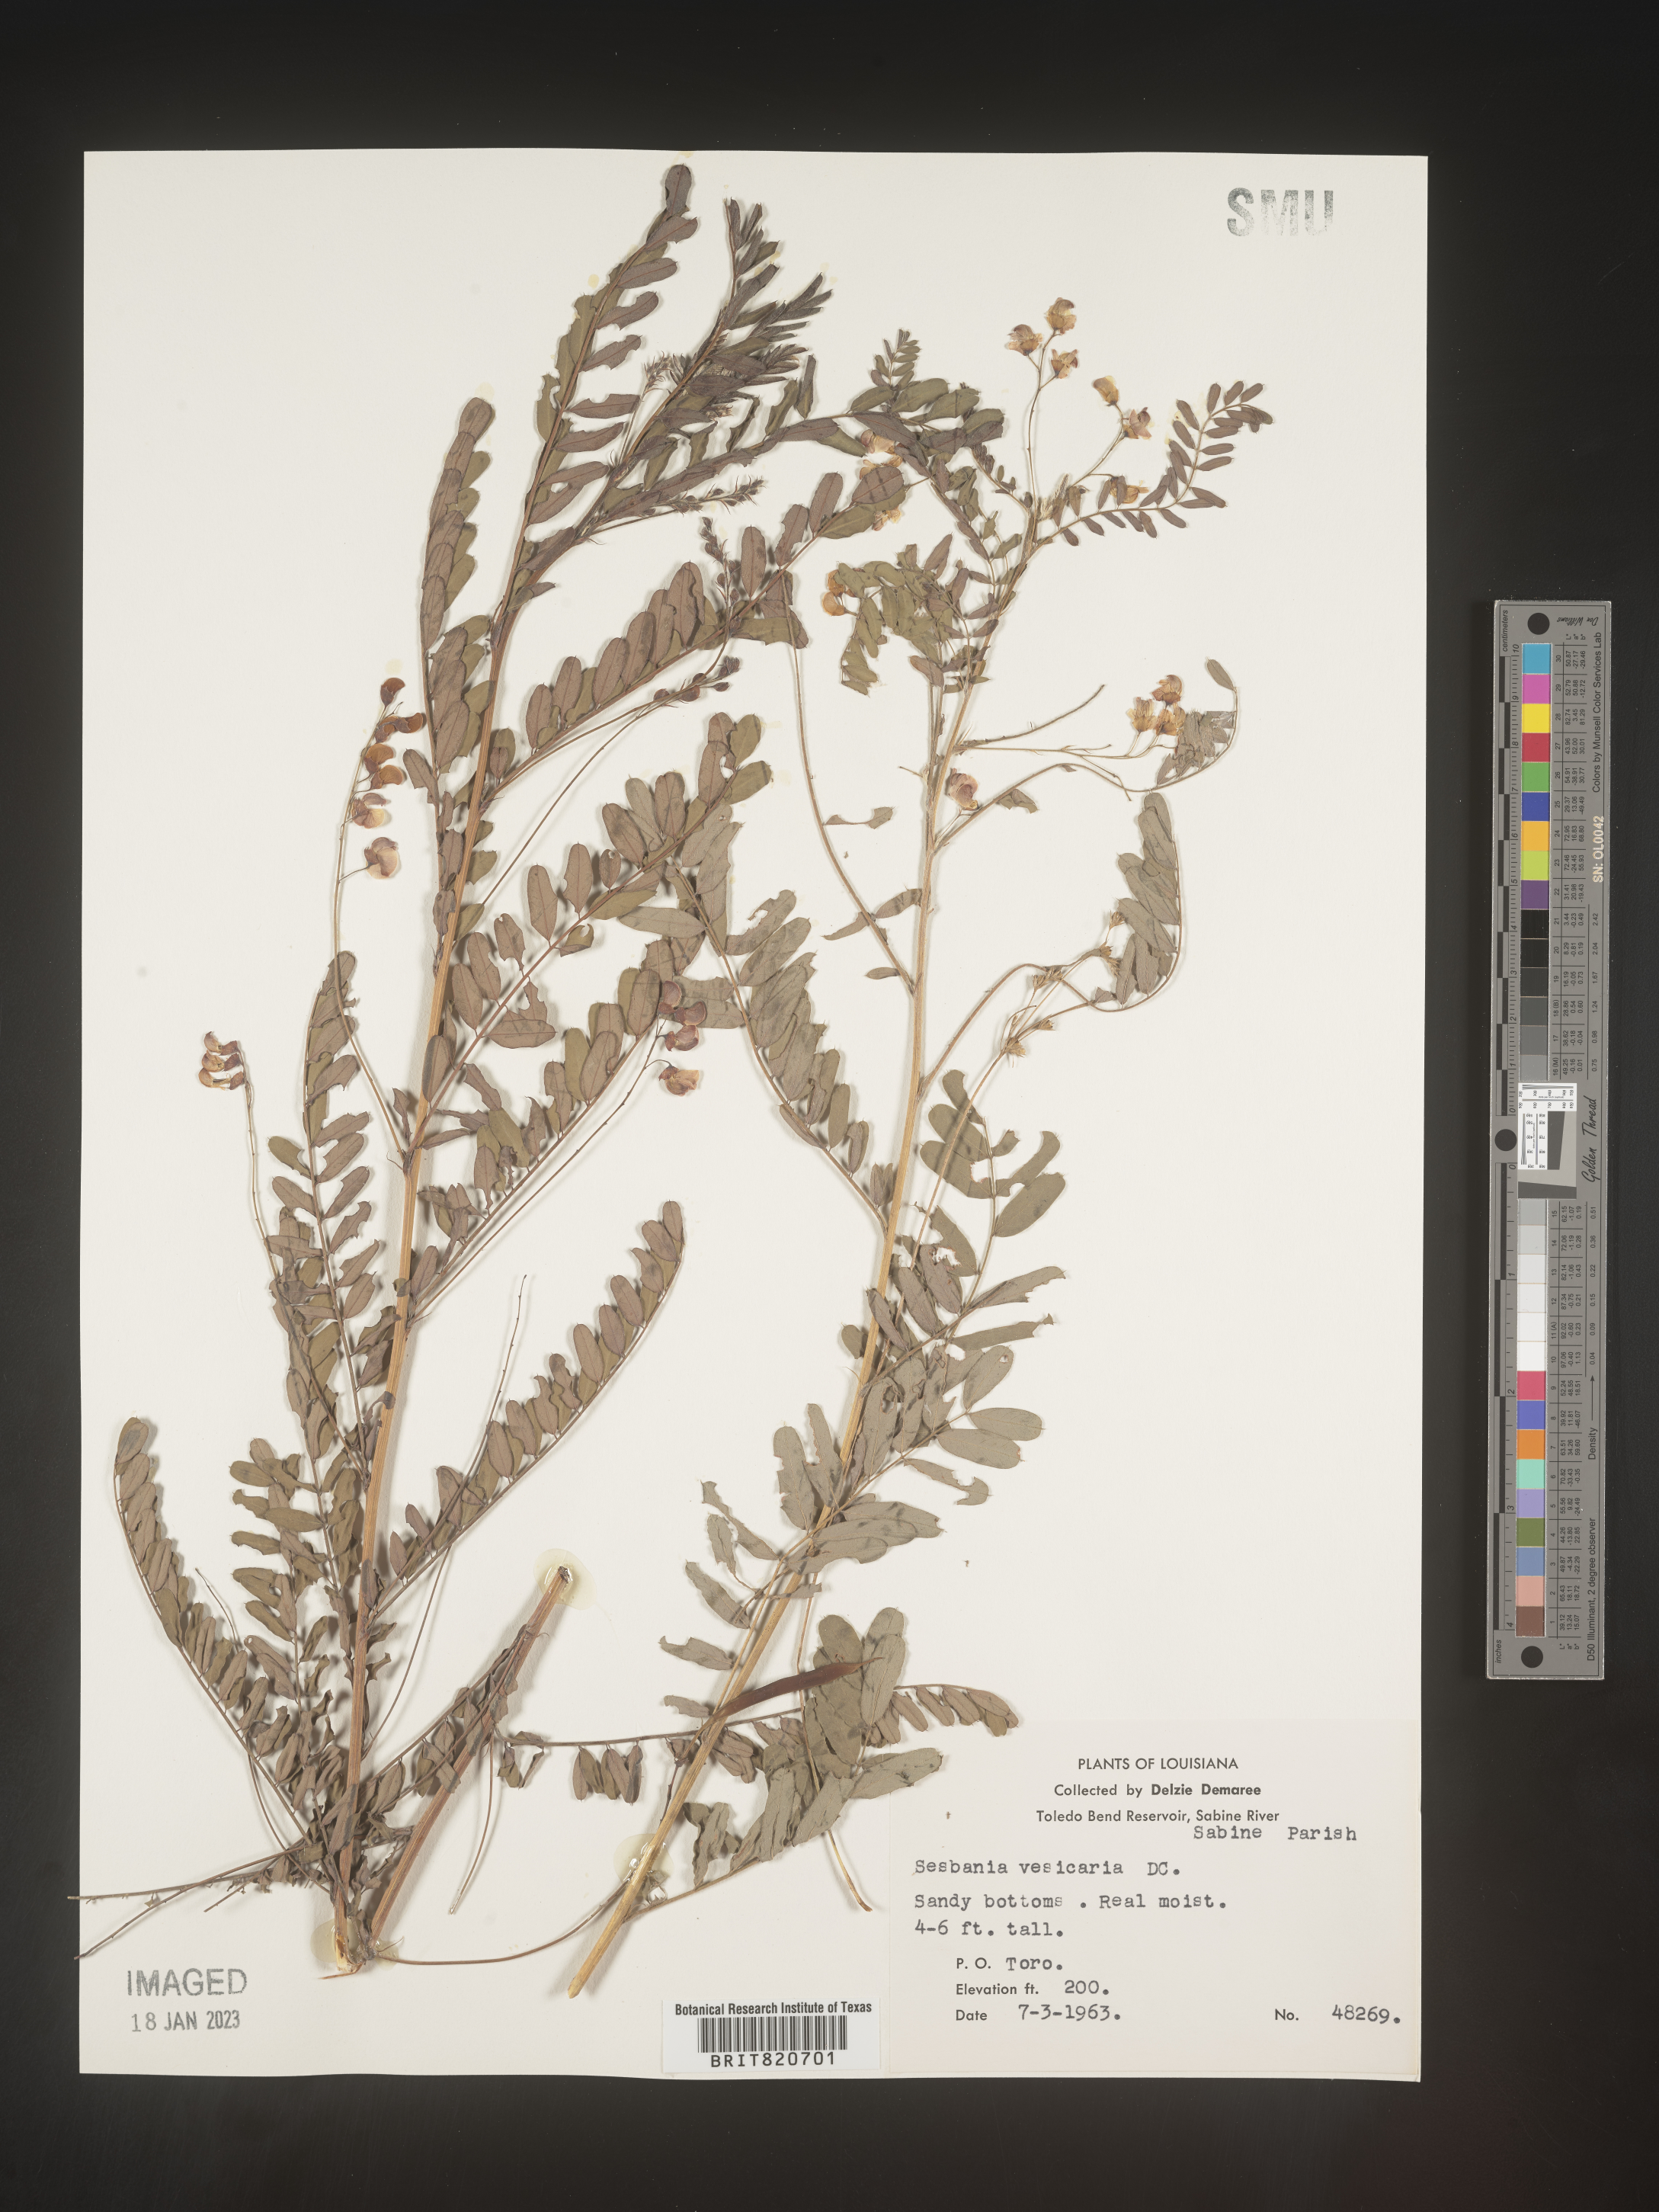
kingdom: Plantae
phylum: Tracheophyta
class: Magnoliopsida
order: Fabales
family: Fabaceae
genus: Sesbania
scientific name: Sesbania vesicaria
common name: Bagpod
